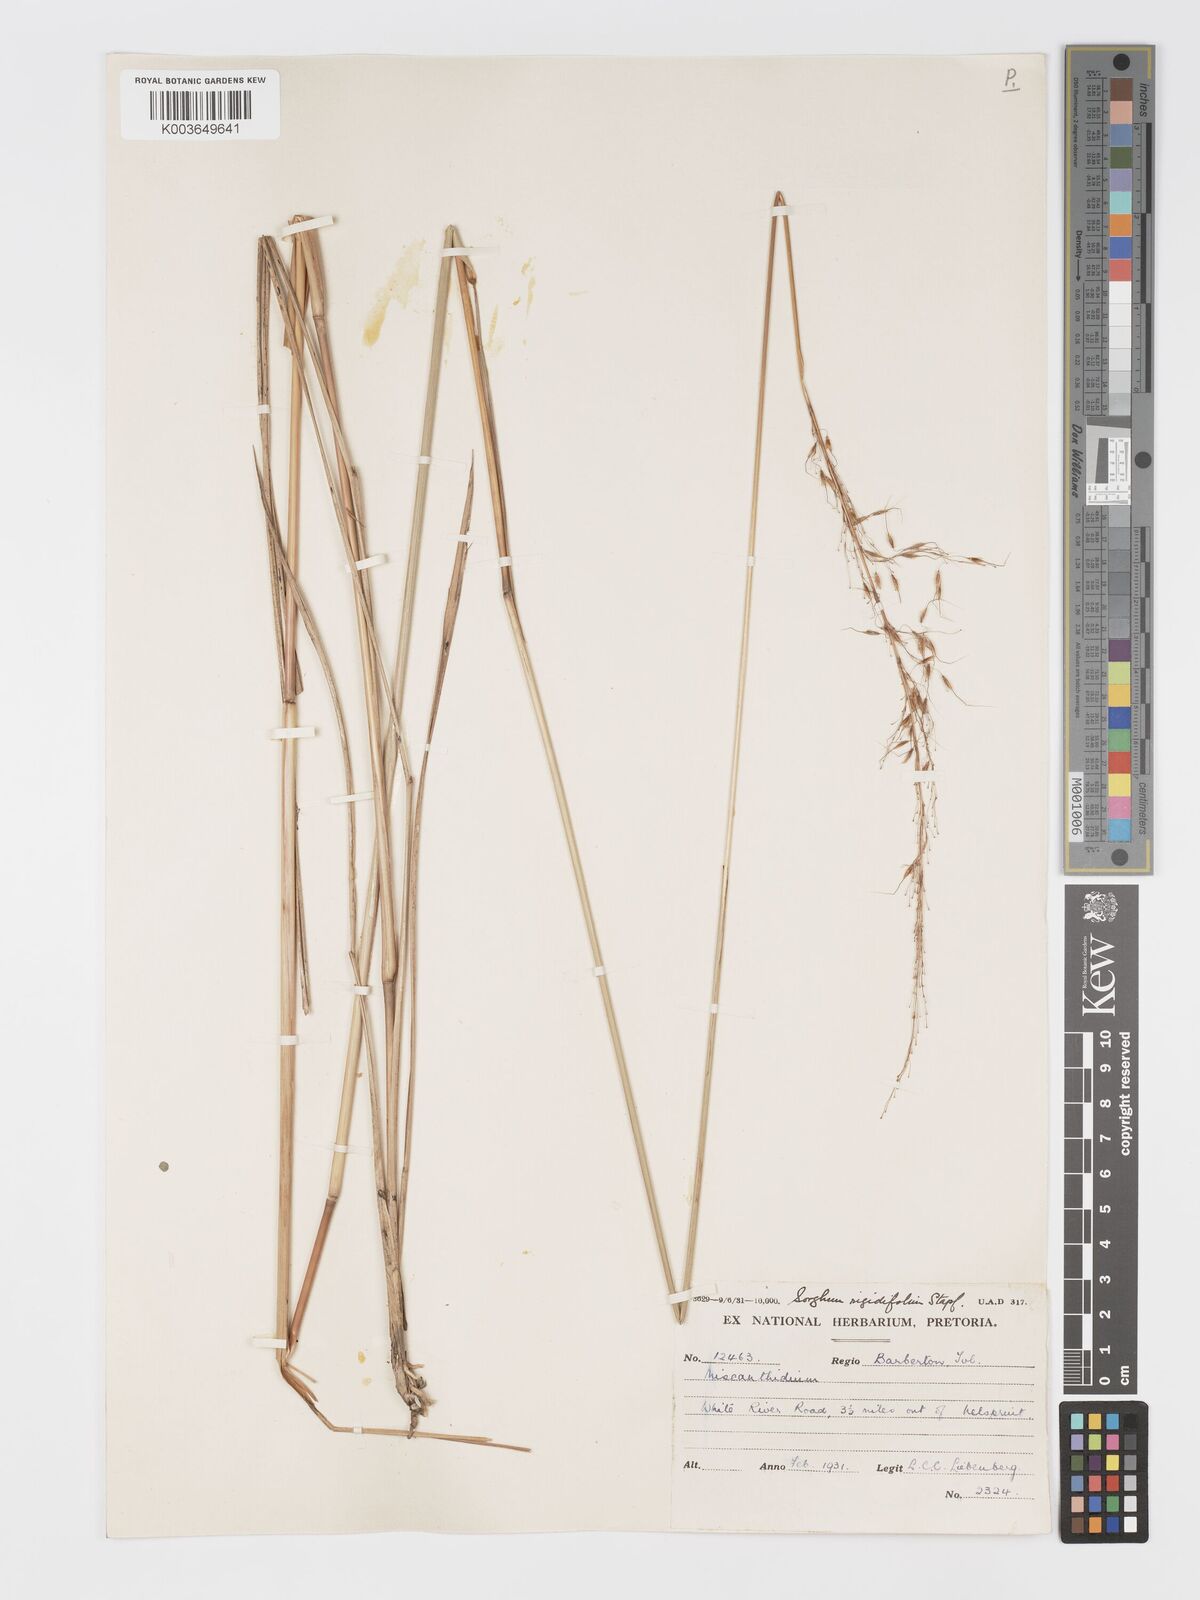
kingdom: Plantae
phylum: Tracheophyta
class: Liliopsida
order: Poales
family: Poaceae
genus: Sorghastrum
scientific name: Sorghastrum stipoides
